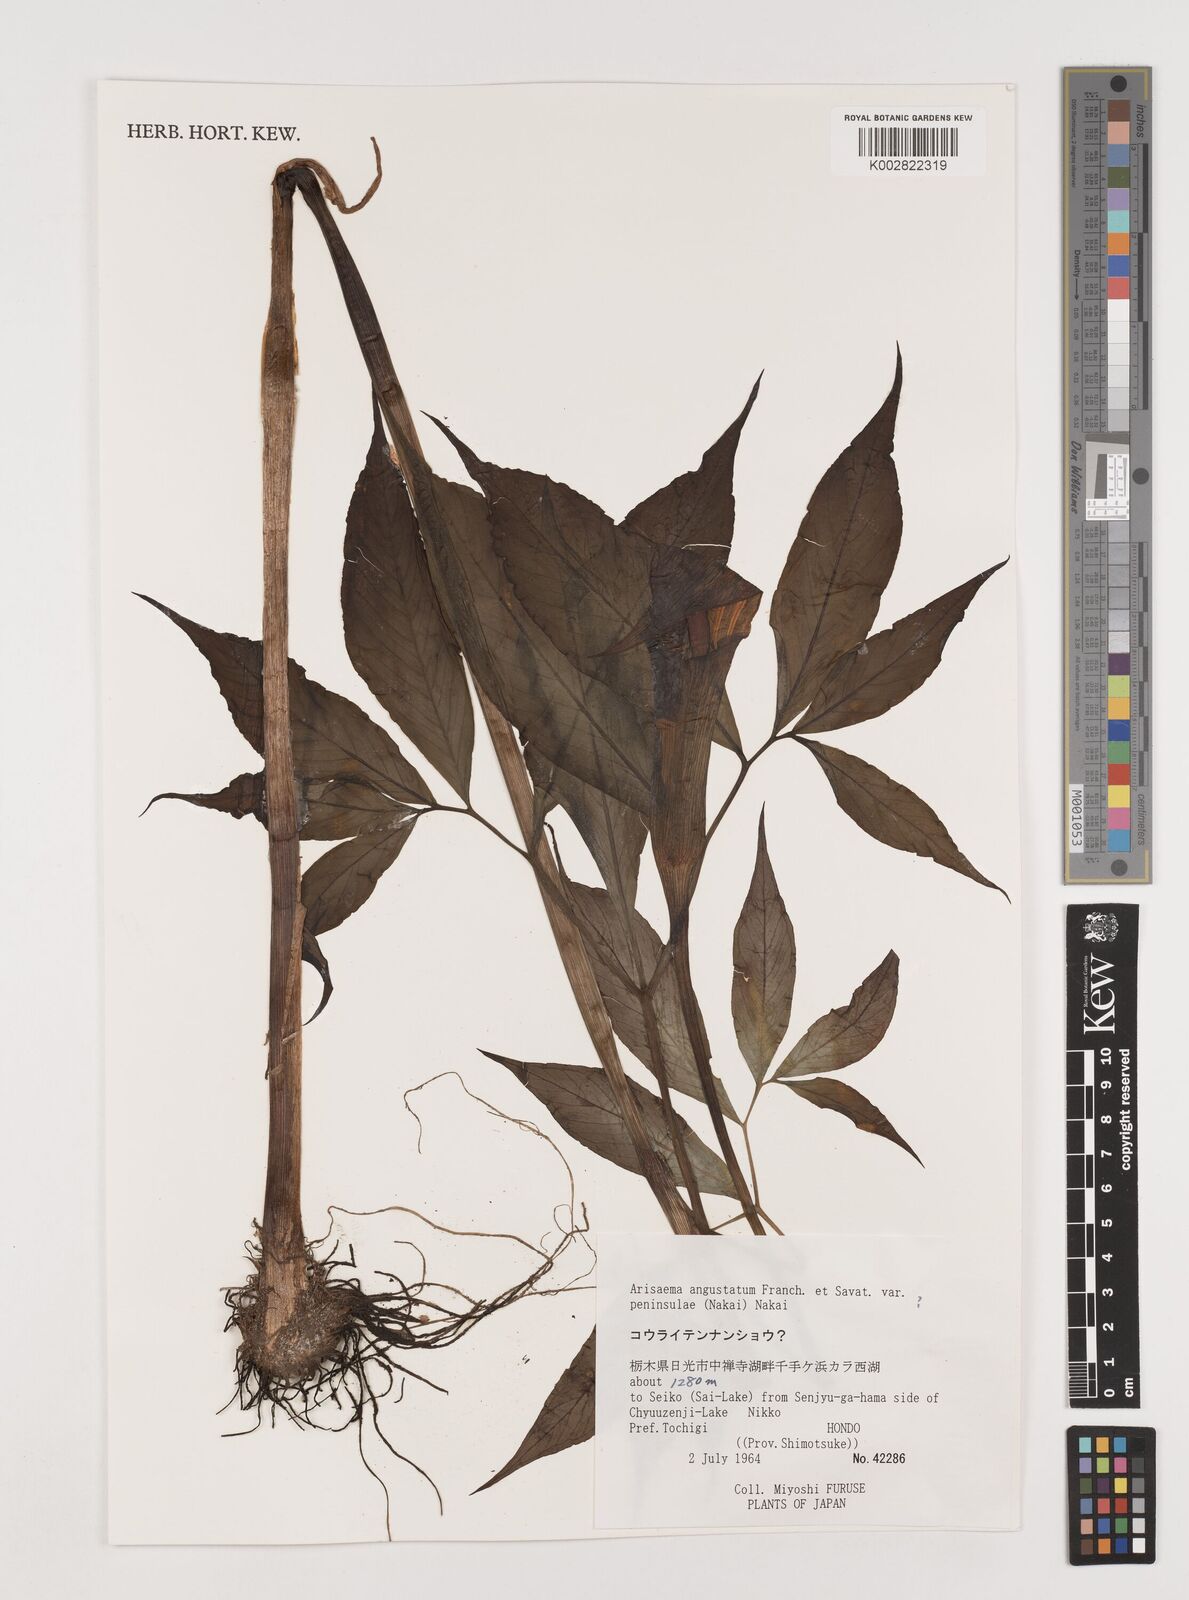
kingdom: Plantae
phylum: Tracheophyta
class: Liliopsida
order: Alismatales
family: Araceae
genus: Arisaema
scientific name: Arisaema angustatum
